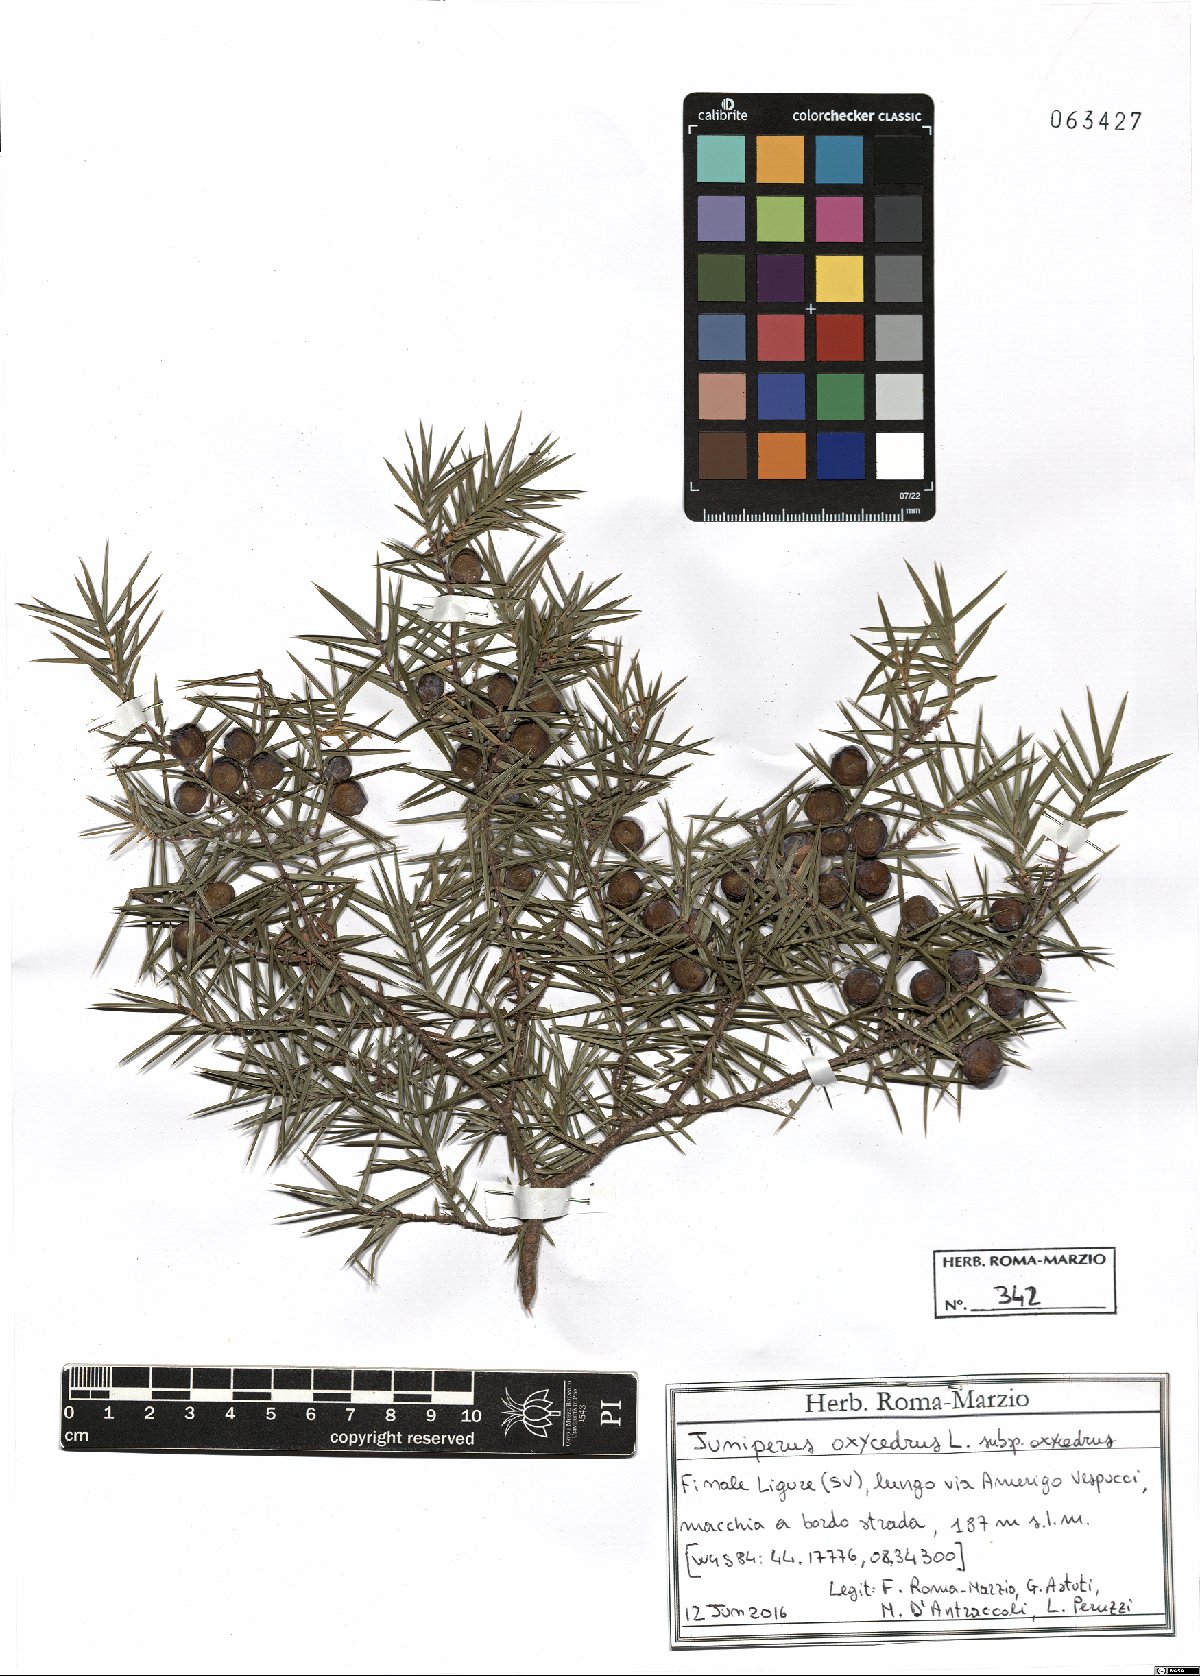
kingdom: Plantae
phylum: Tracheophyta
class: Pinopsida
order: Pinales
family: Cupressaceae
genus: Juniperus
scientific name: Juniperus oxycedrus
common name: Prickly juniper
